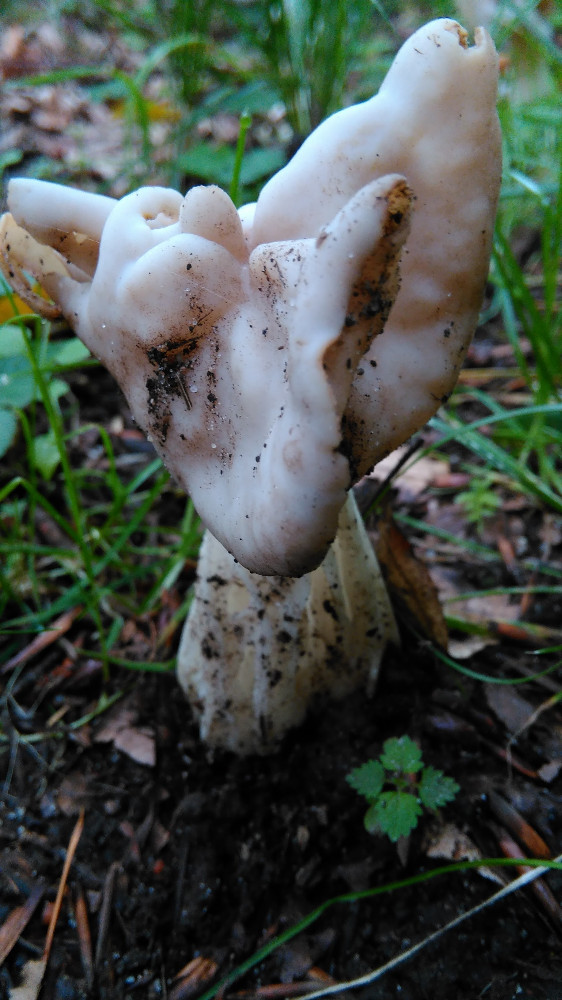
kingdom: Fungi
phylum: Ascomycota
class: Pezizomycetes
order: Pezizales
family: Helvellaceae
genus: Helvella
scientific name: Helvella crispa
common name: kruset foldhat
